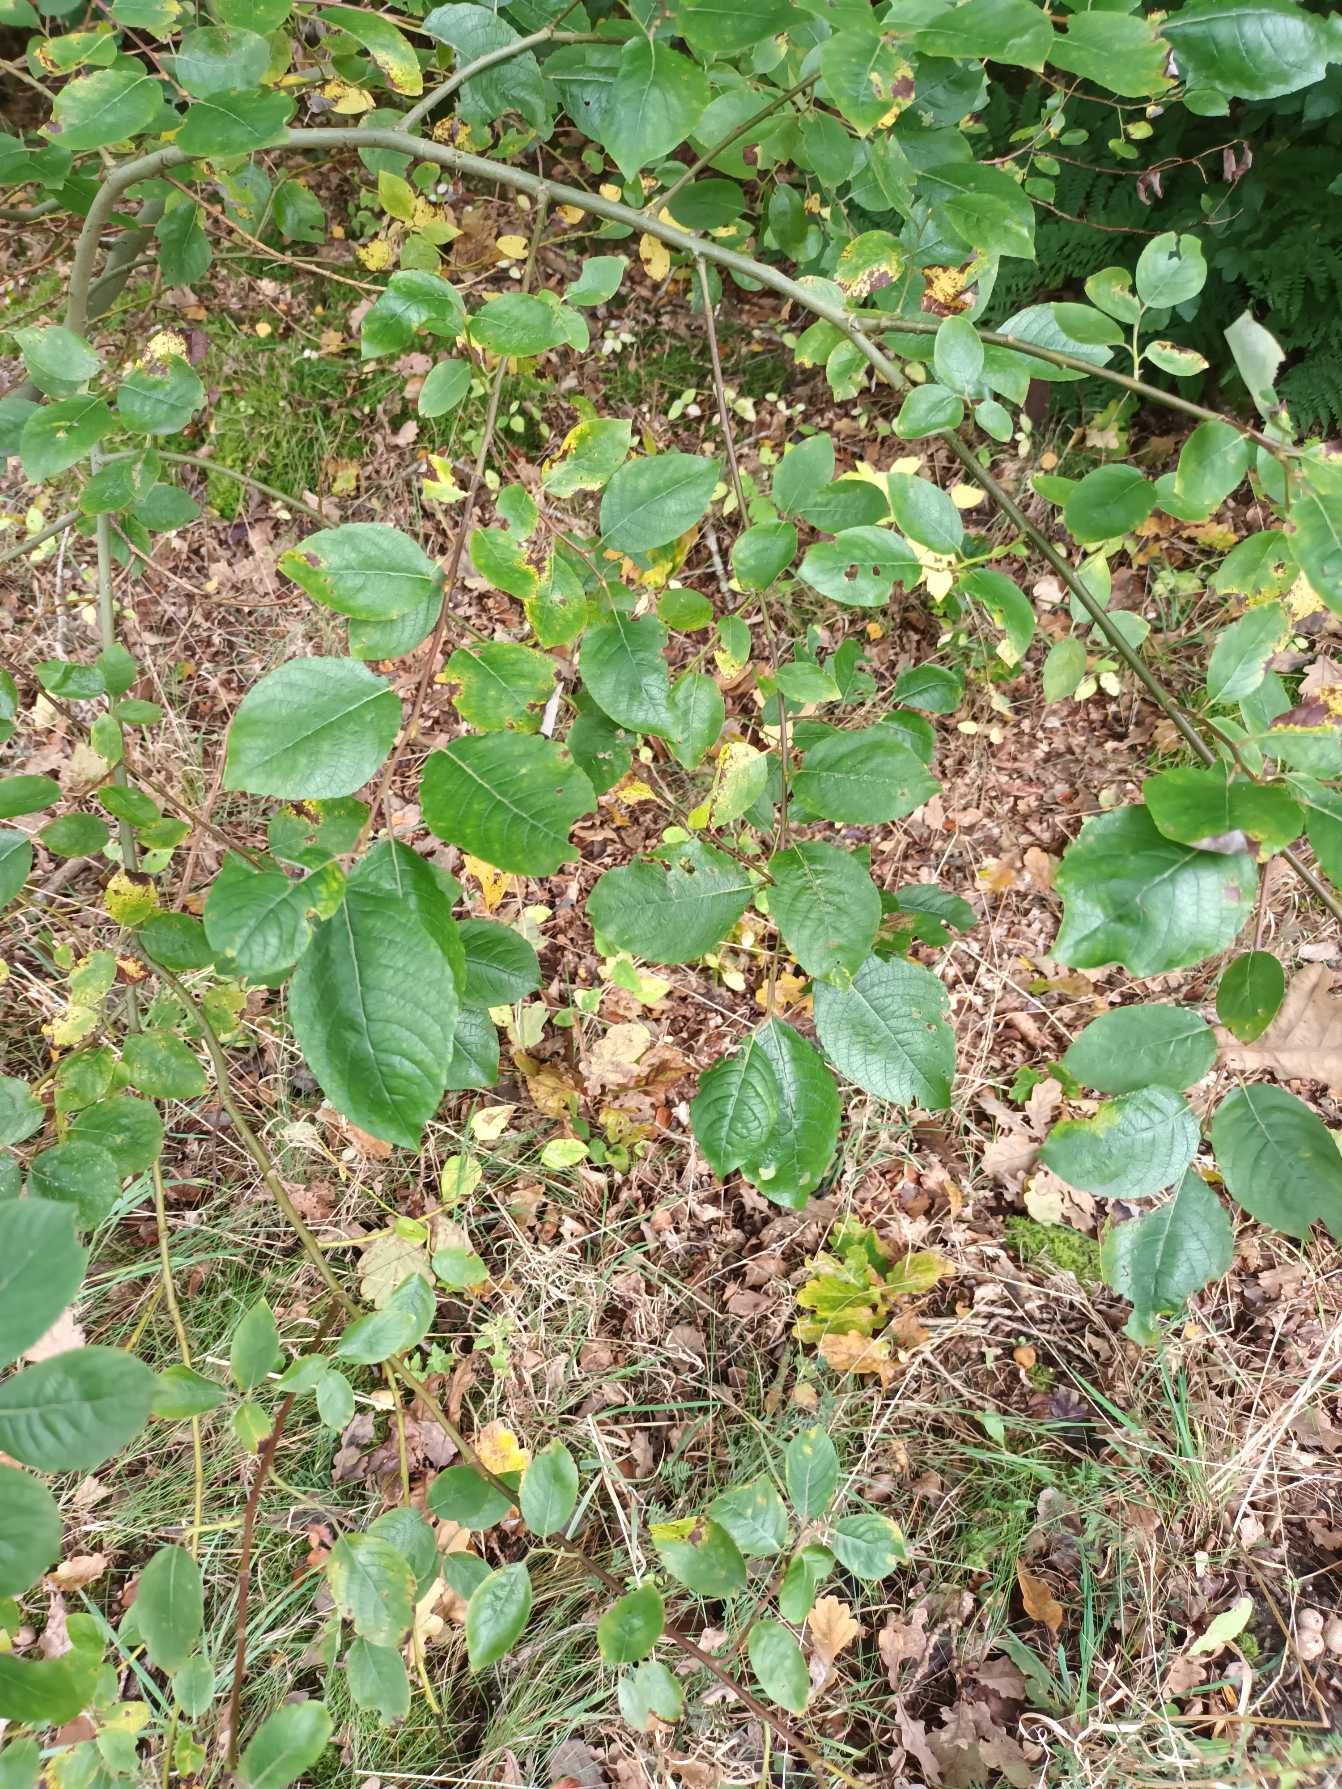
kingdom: Plantae
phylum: Tracheophyta
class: Magnoliopsida
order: Malpighiales
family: Salicaceae
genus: Salix
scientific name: Salix caprea
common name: Selje-pil
